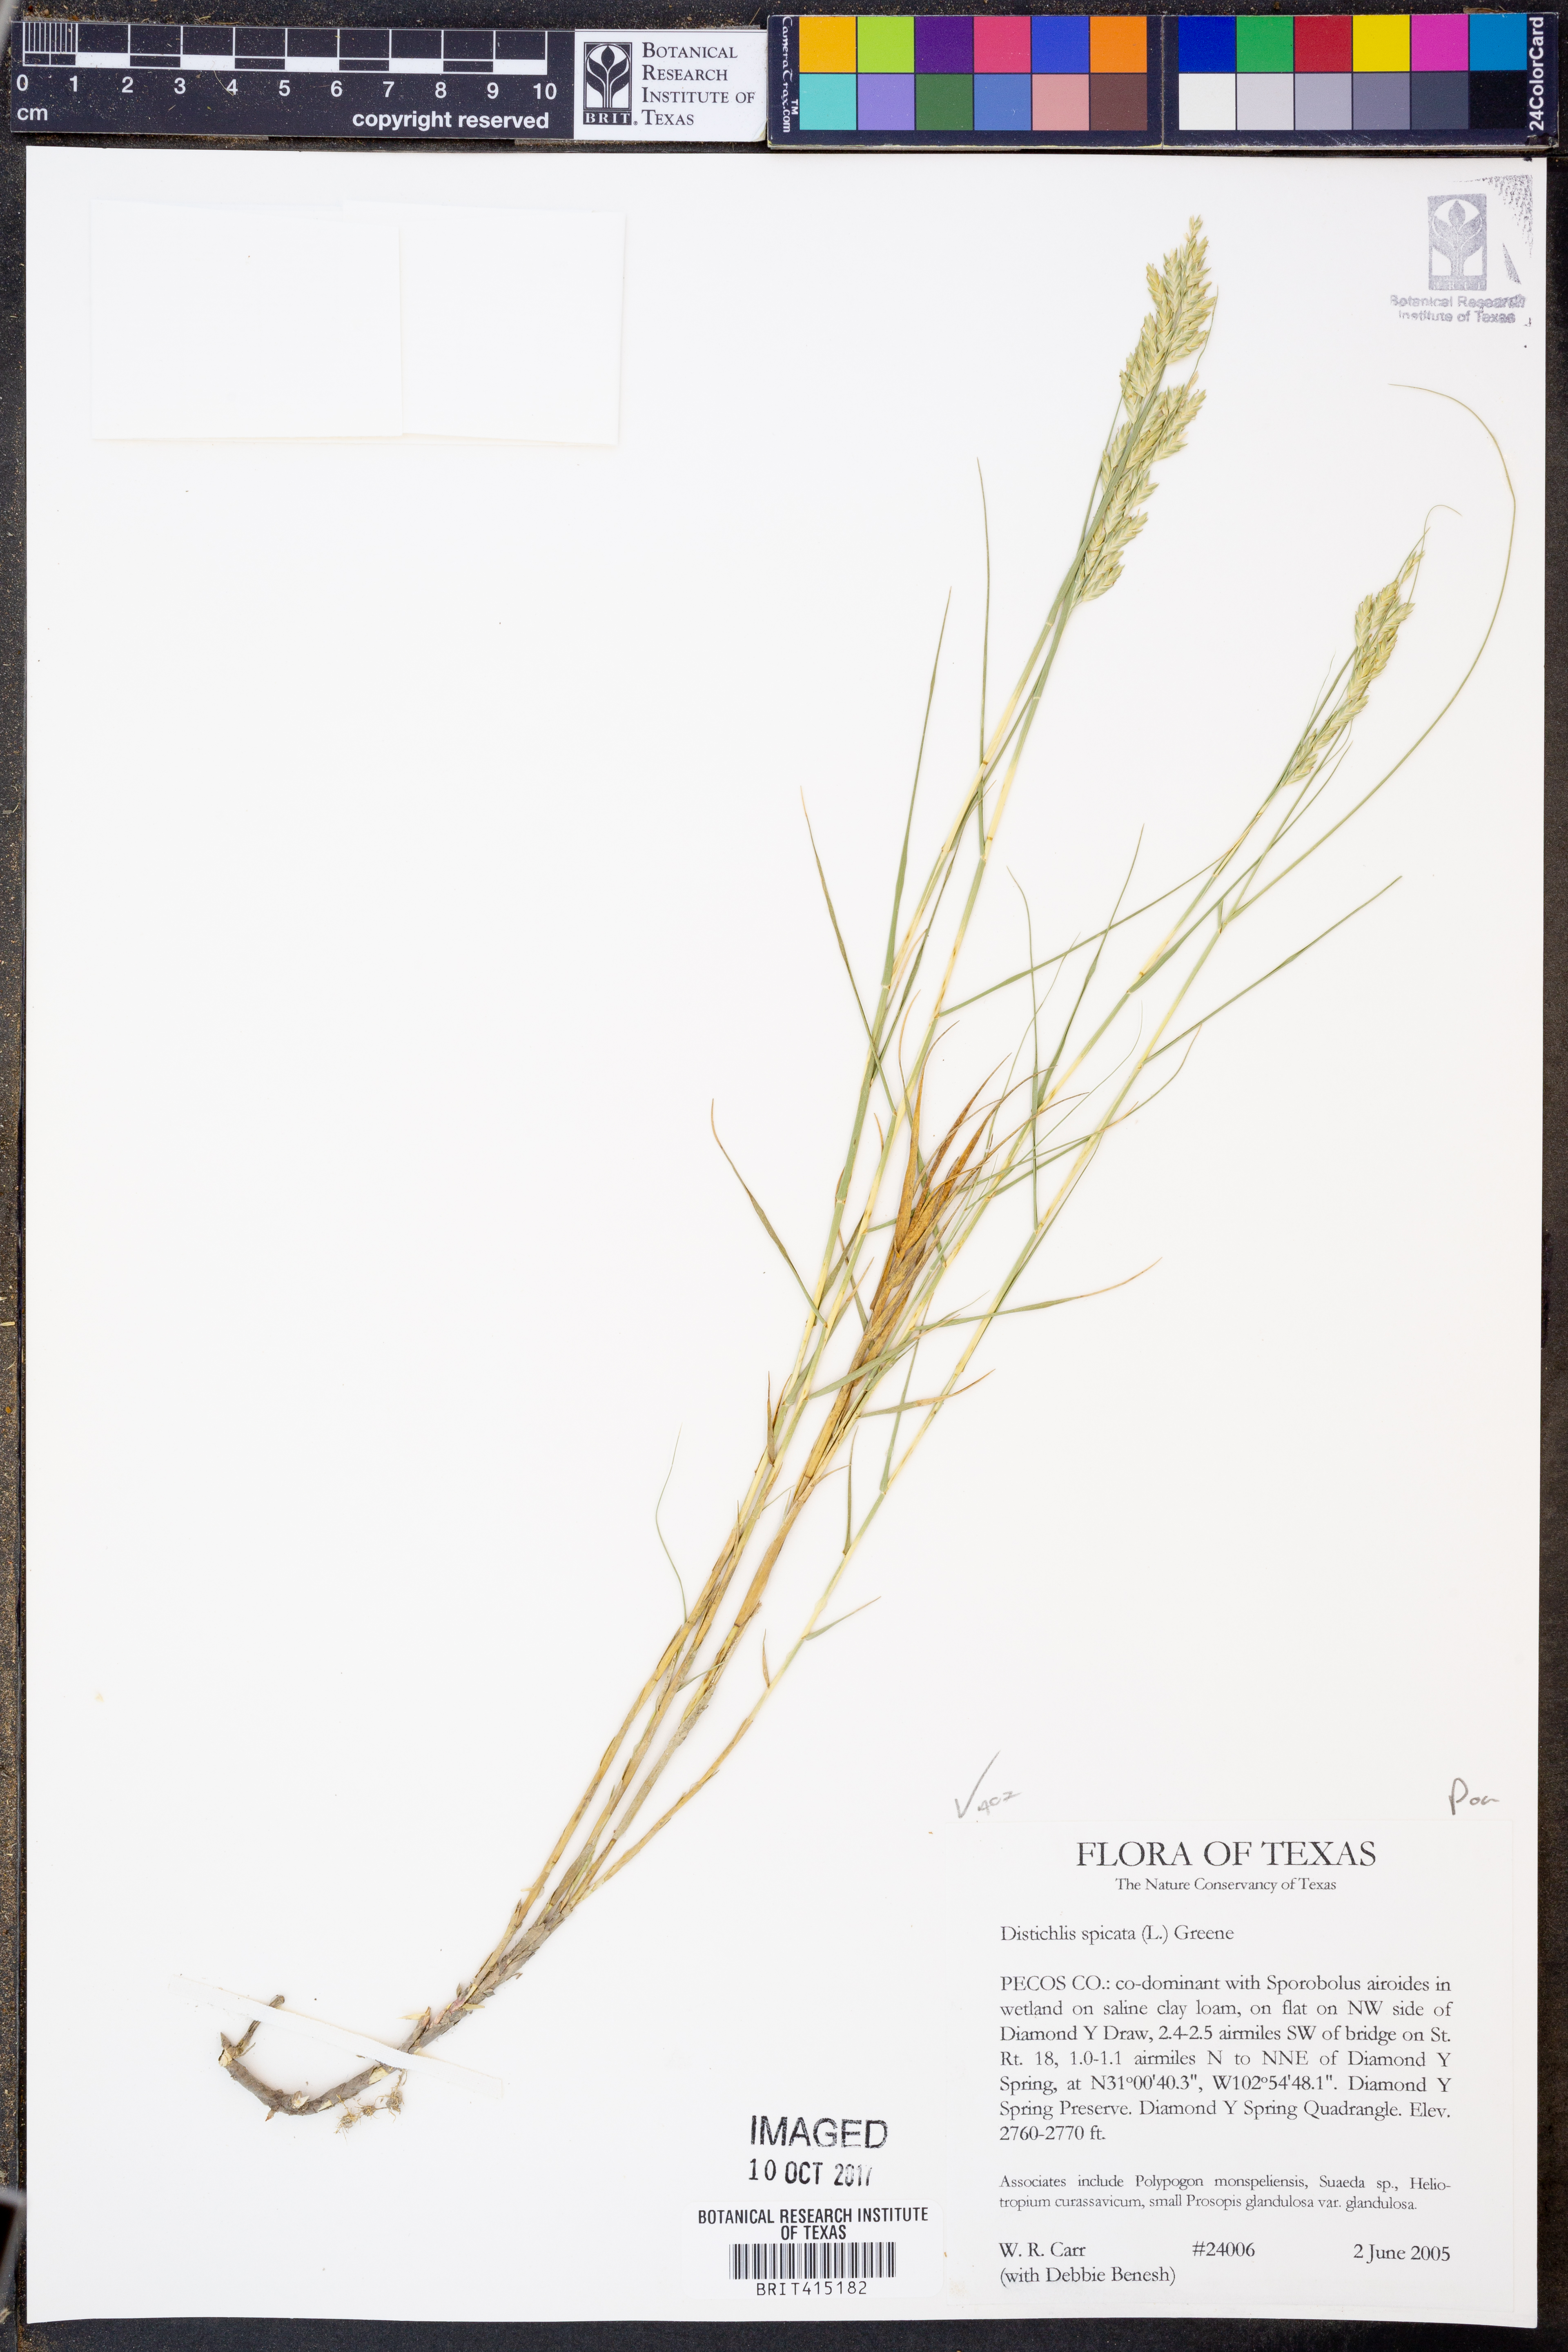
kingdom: Plantae
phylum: Tracheophyta
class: Liliopsida
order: Poales
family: Poaceae
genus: Distichlis
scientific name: Distichlis spicata
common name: Saltgrass
